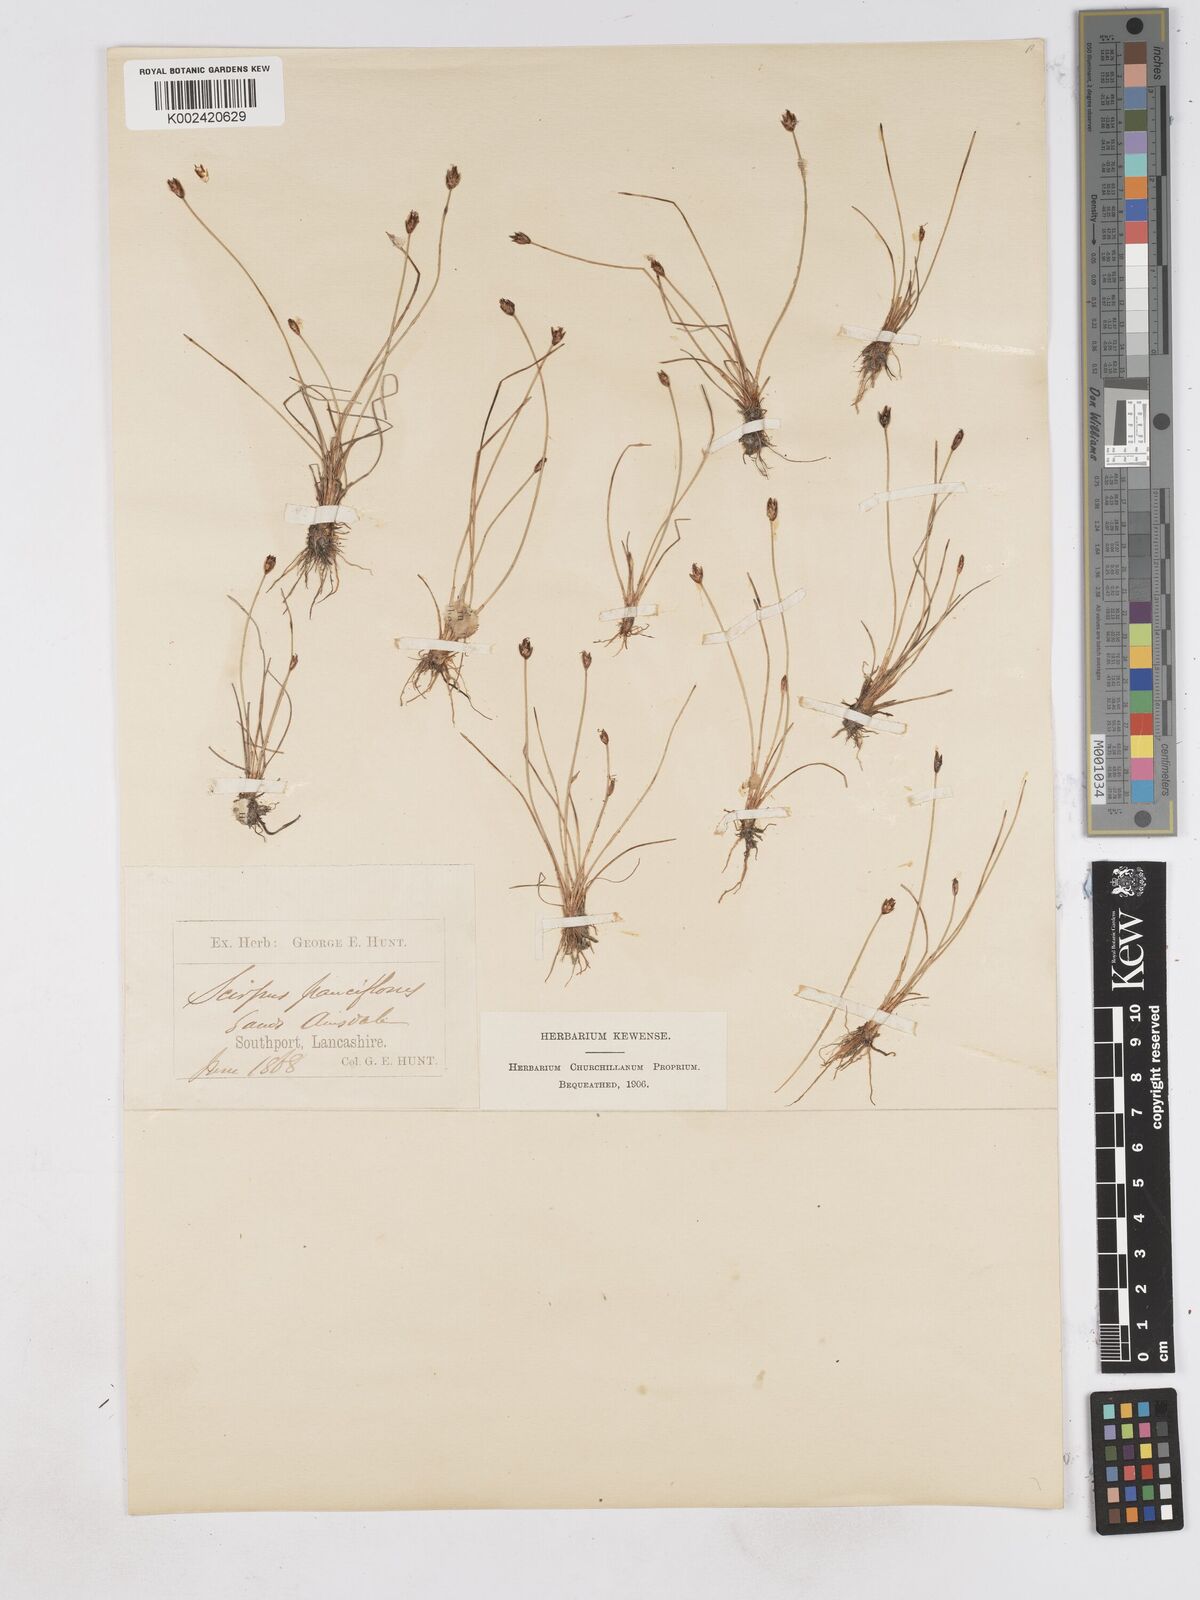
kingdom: Plantae
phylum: Tracheophyta
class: Liliopsida
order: Poales
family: Cyperaceae
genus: Eleocharis
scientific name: Eleocharis quinqueflora
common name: Few-flowered spike-rush
